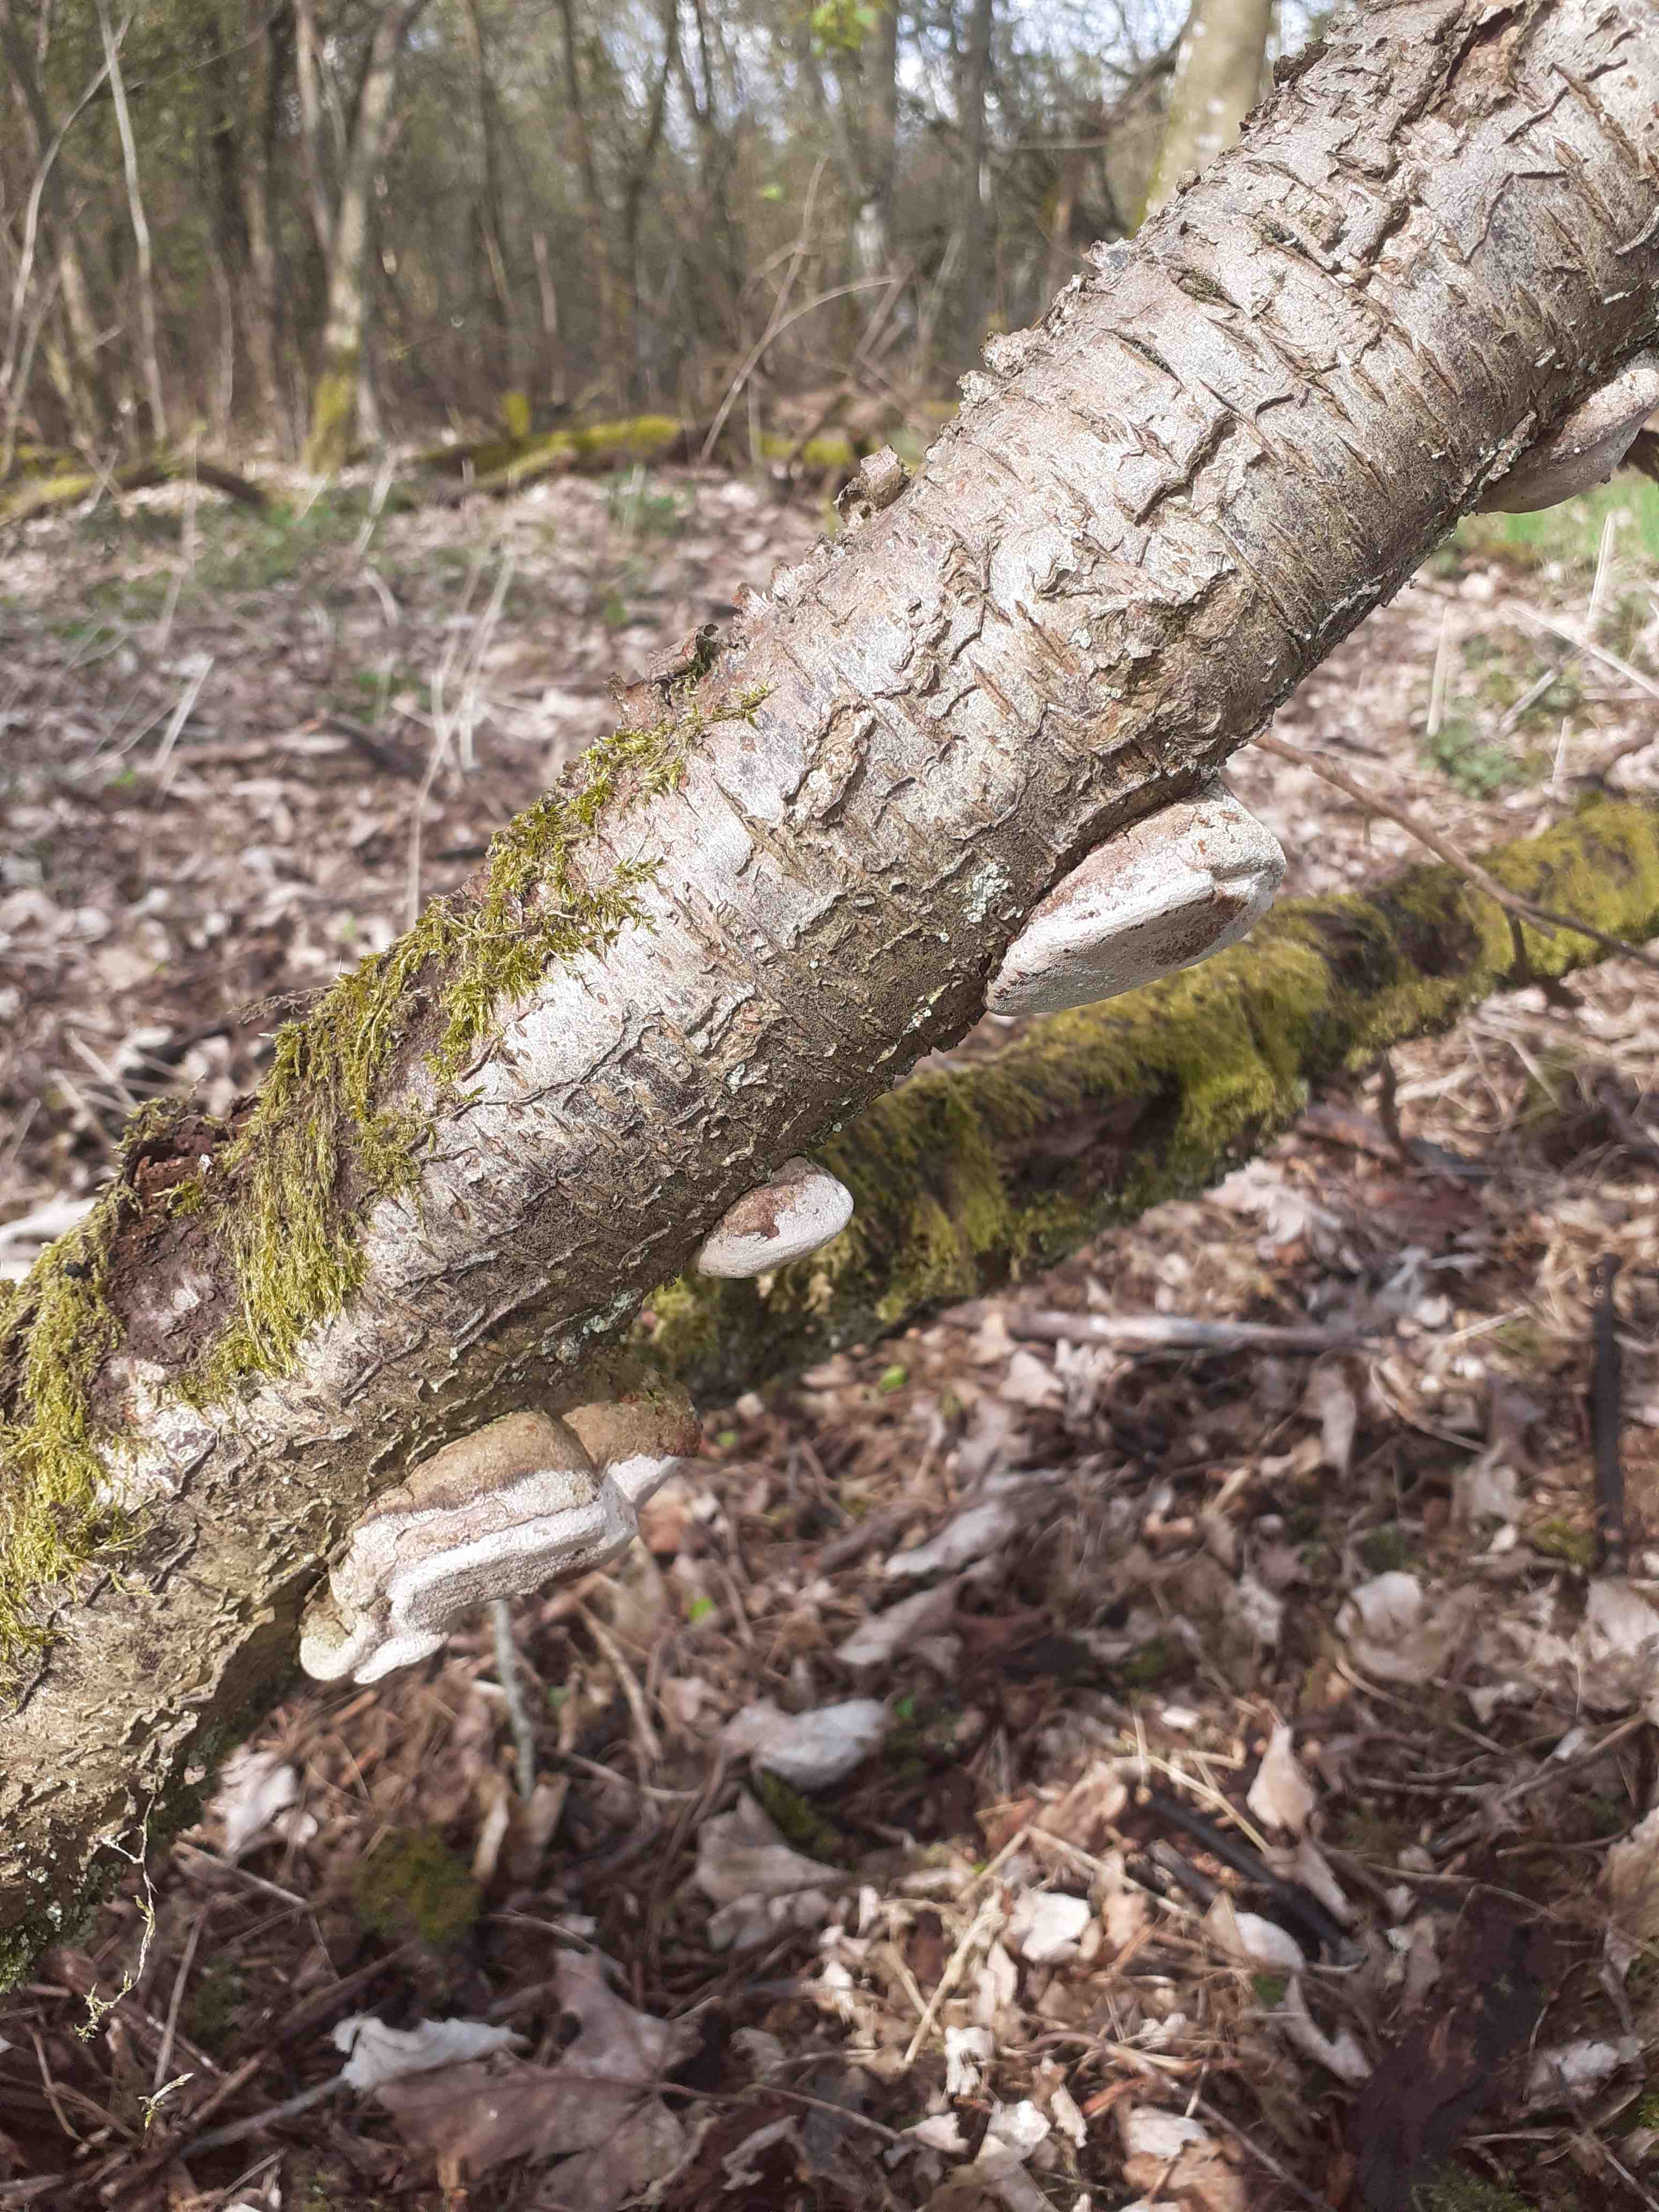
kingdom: Fungi
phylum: Basidiomycota
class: Agaricomycetes
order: Hymenochaetales
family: Hymenochaetaceae
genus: Phellinus
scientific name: Phellinus pomaceus
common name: blomme-ildporesvamp
